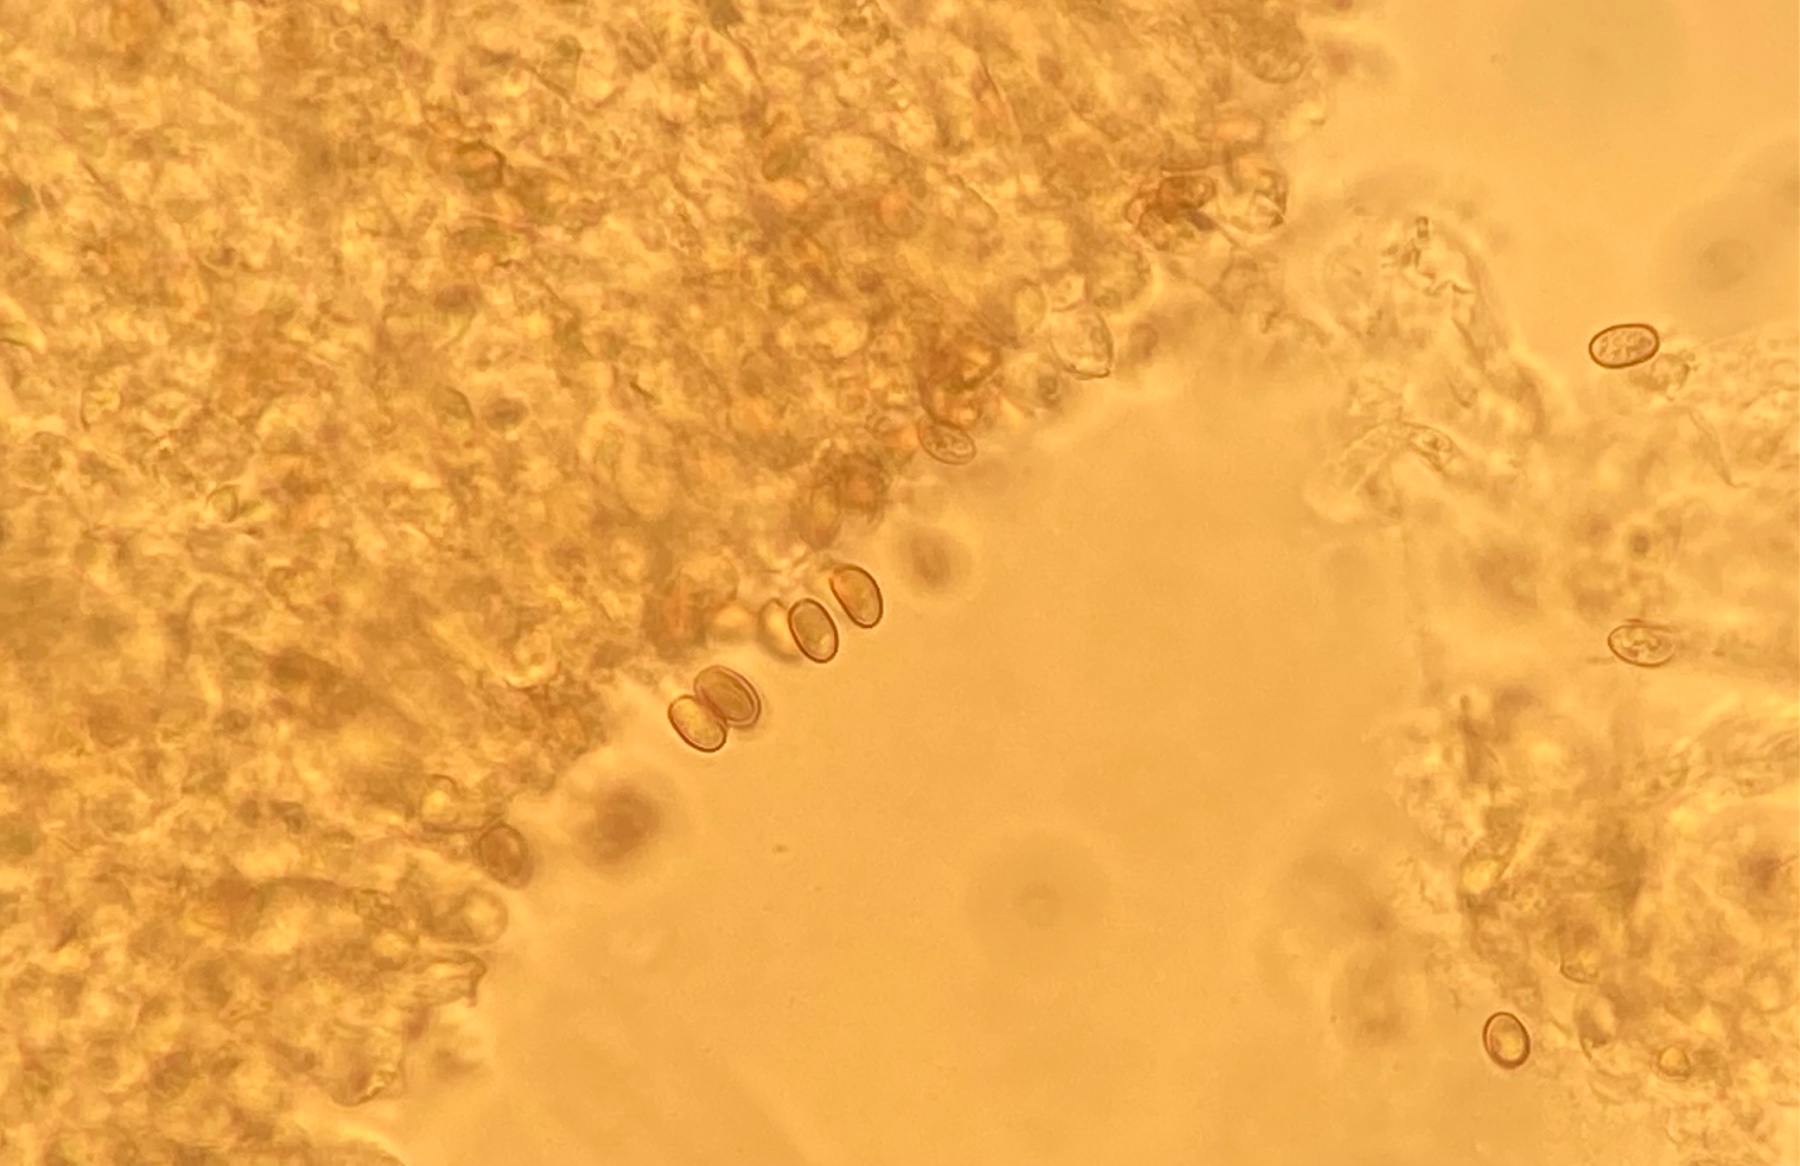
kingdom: Fungi
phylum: Basidiomycota
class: Agaricomycetes
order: Agaricales
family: Inocybaceae
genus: Inosperma
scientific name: Inosperma kuthanii
